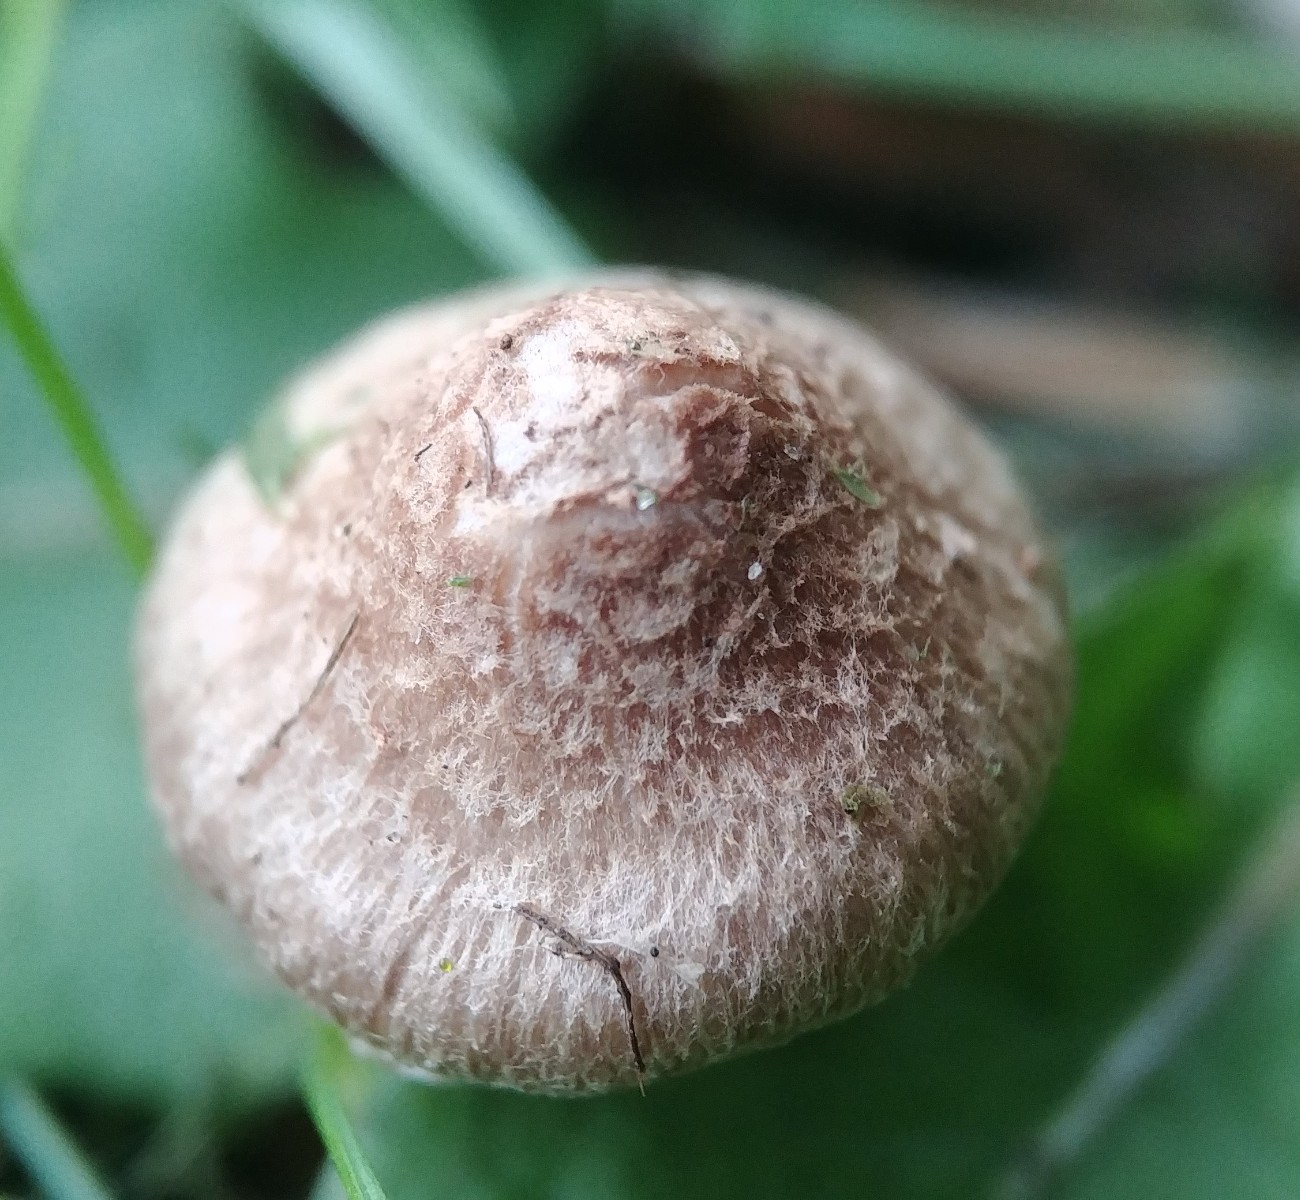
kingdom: Fungi
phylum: Basidiomycota
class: Agaricomycetes
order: Agaricales
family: Inocybaceae
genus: Inocybe
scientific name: Inocybe
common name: trævlhat
